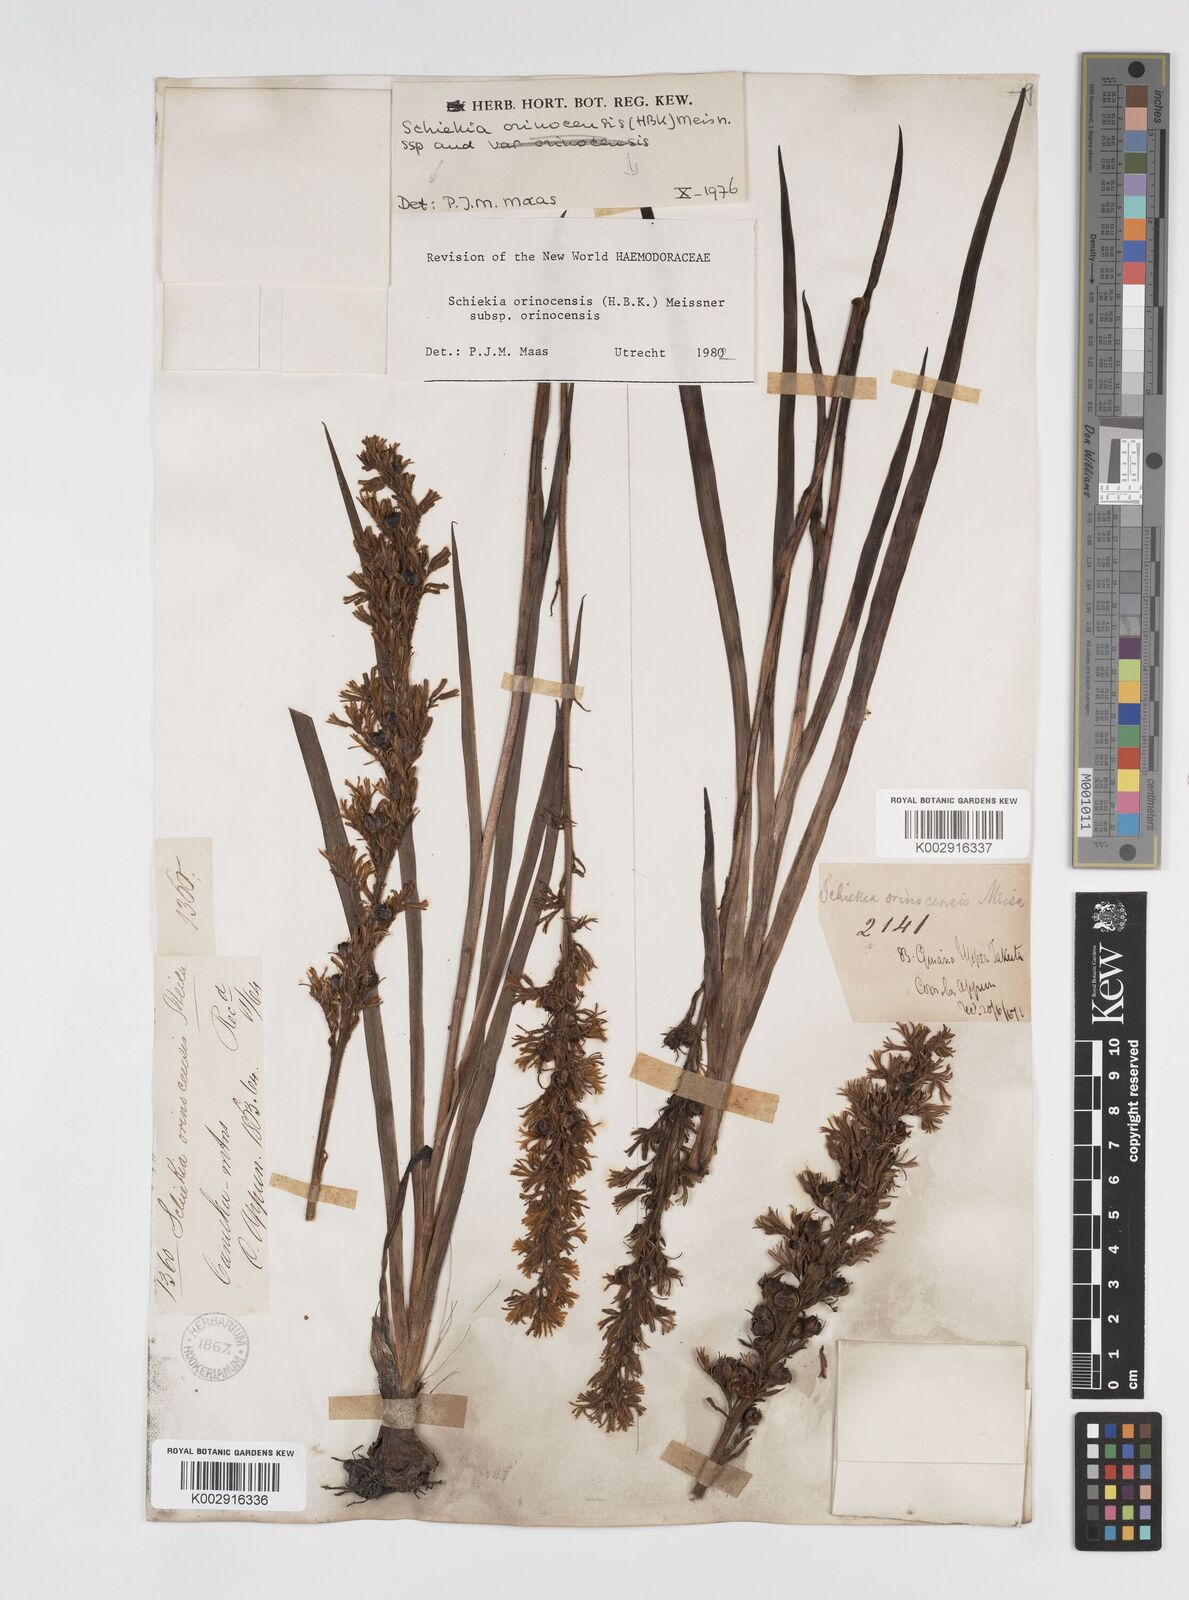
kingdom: Plantae
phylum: Tracheophyta
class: Liliopsida
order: Commelinales
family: Haemodoraceae
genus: Schiekia
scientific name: Schiekia orinocensis
